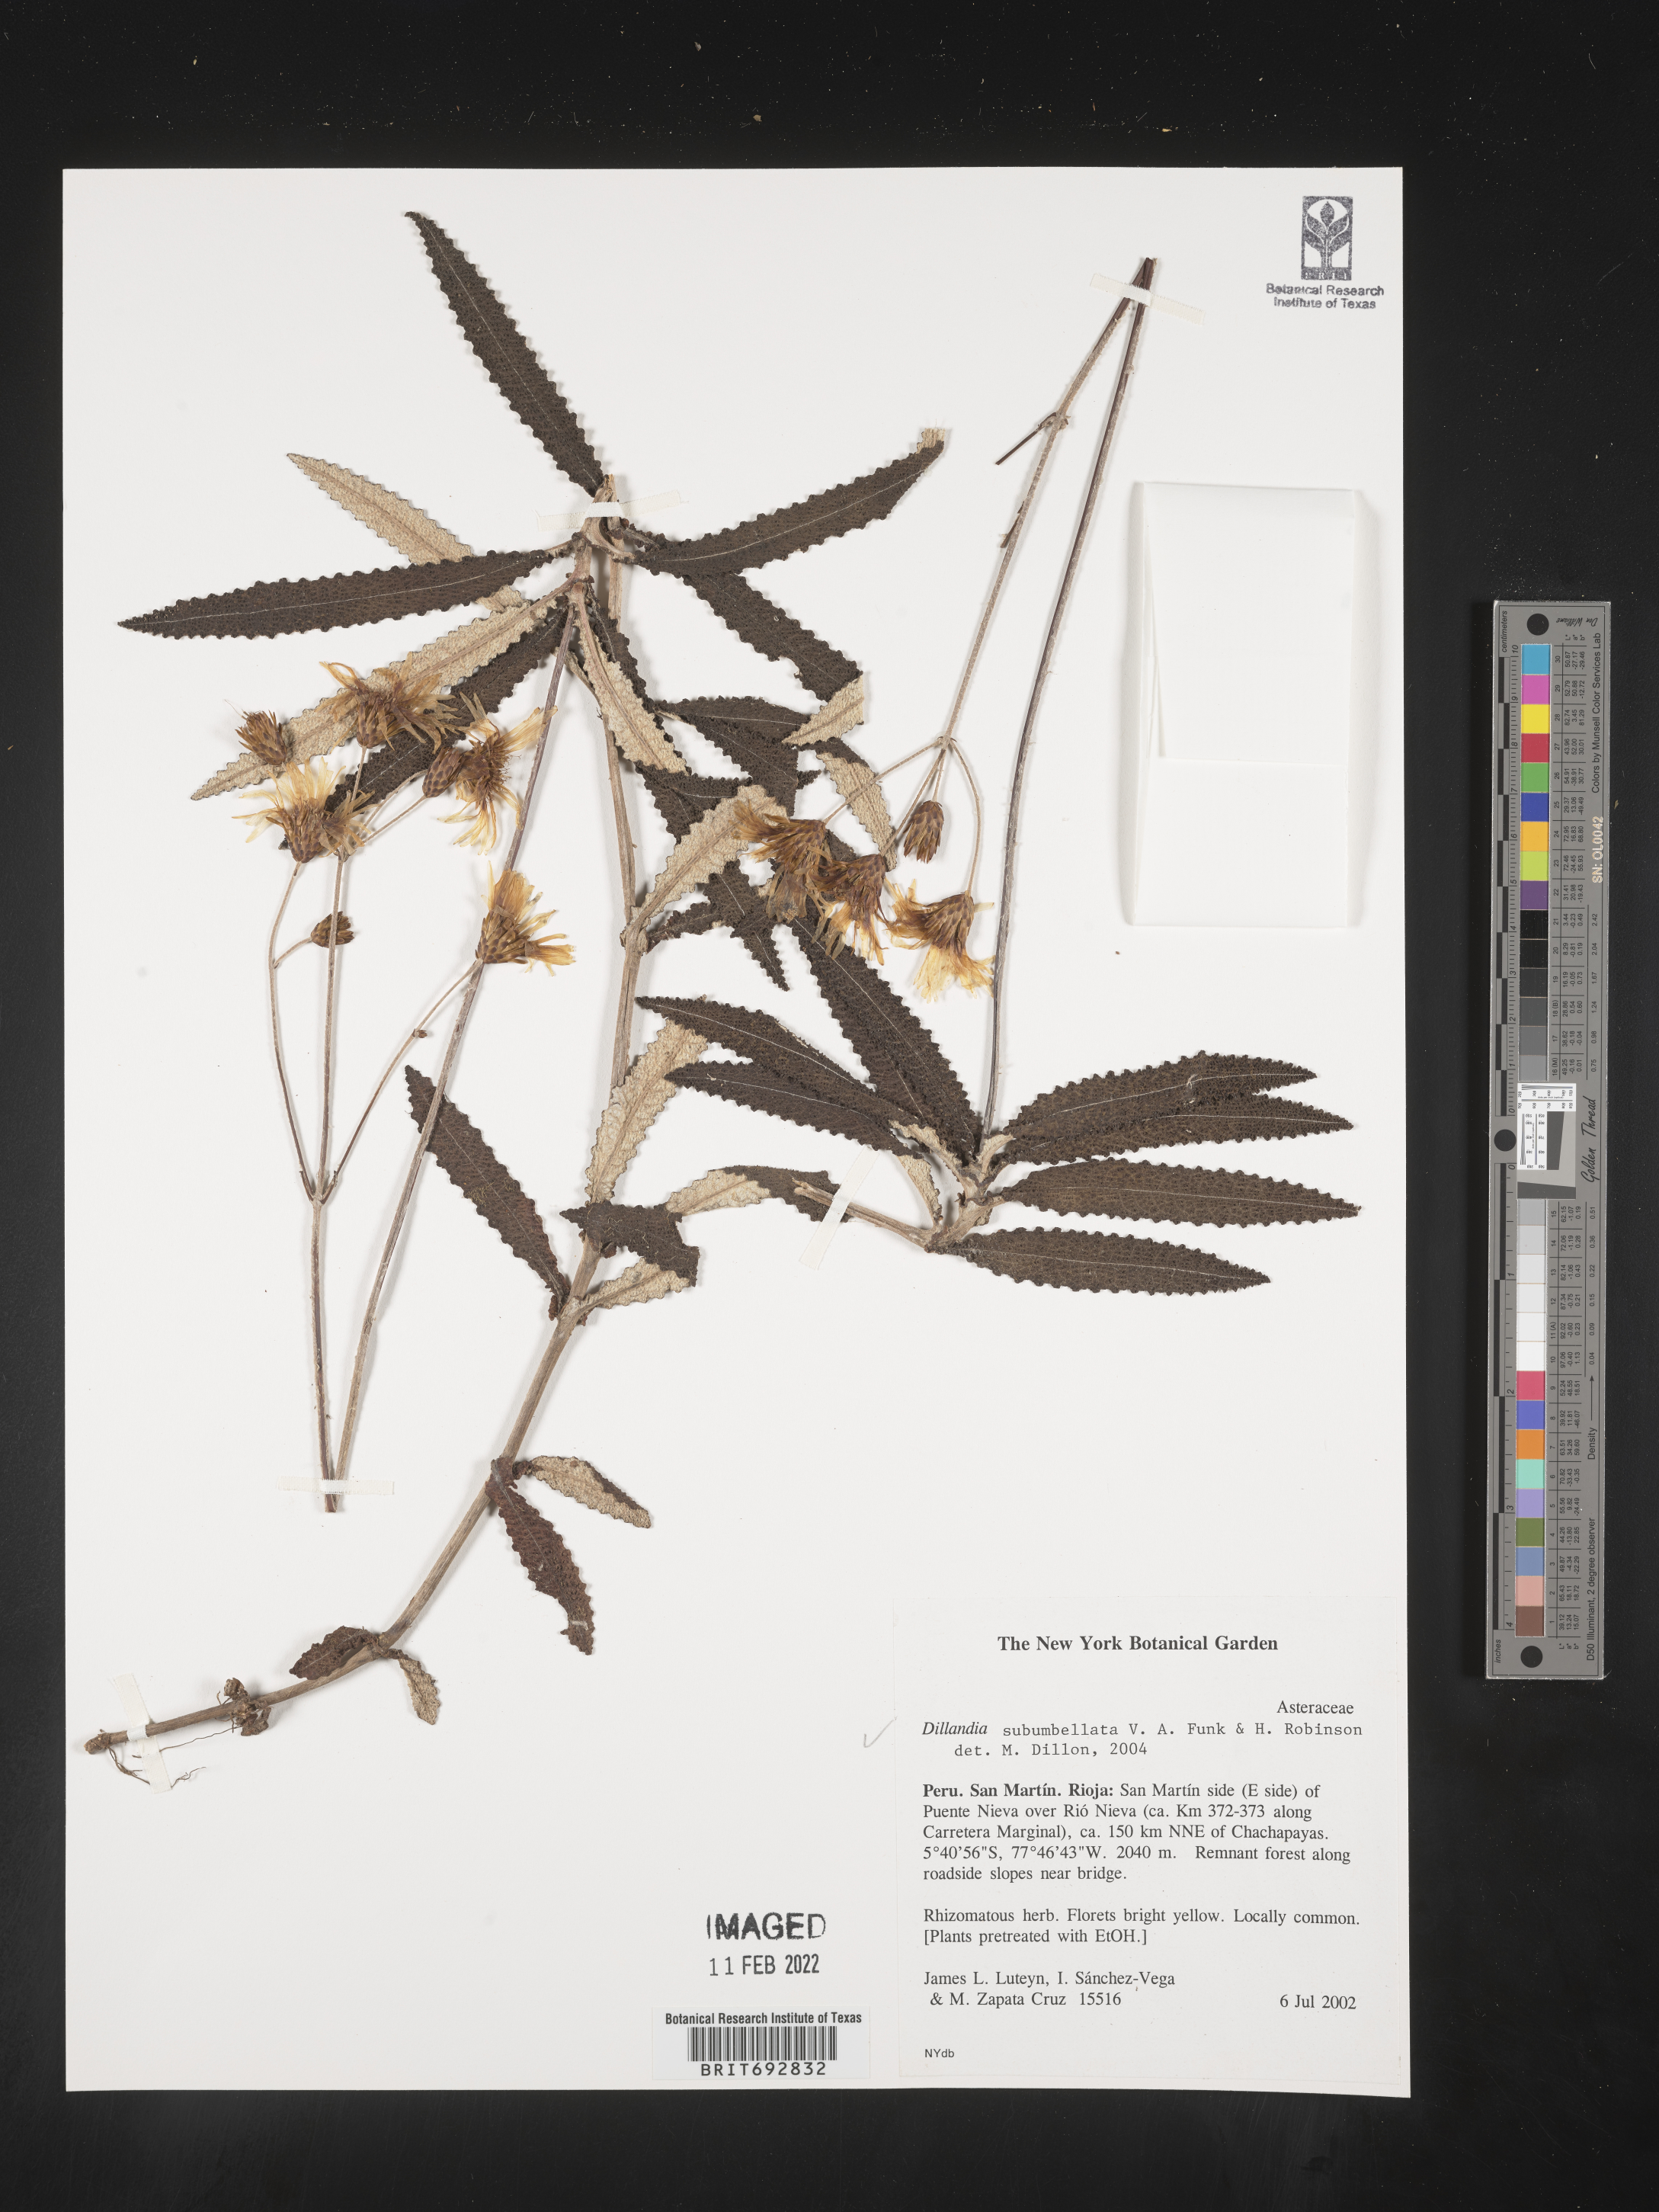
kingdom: Plantae
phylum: Tracheophyta
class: Magnoliopsida
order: Asterales
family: Asteraceae
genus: Dillandia
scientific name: Dillandia
